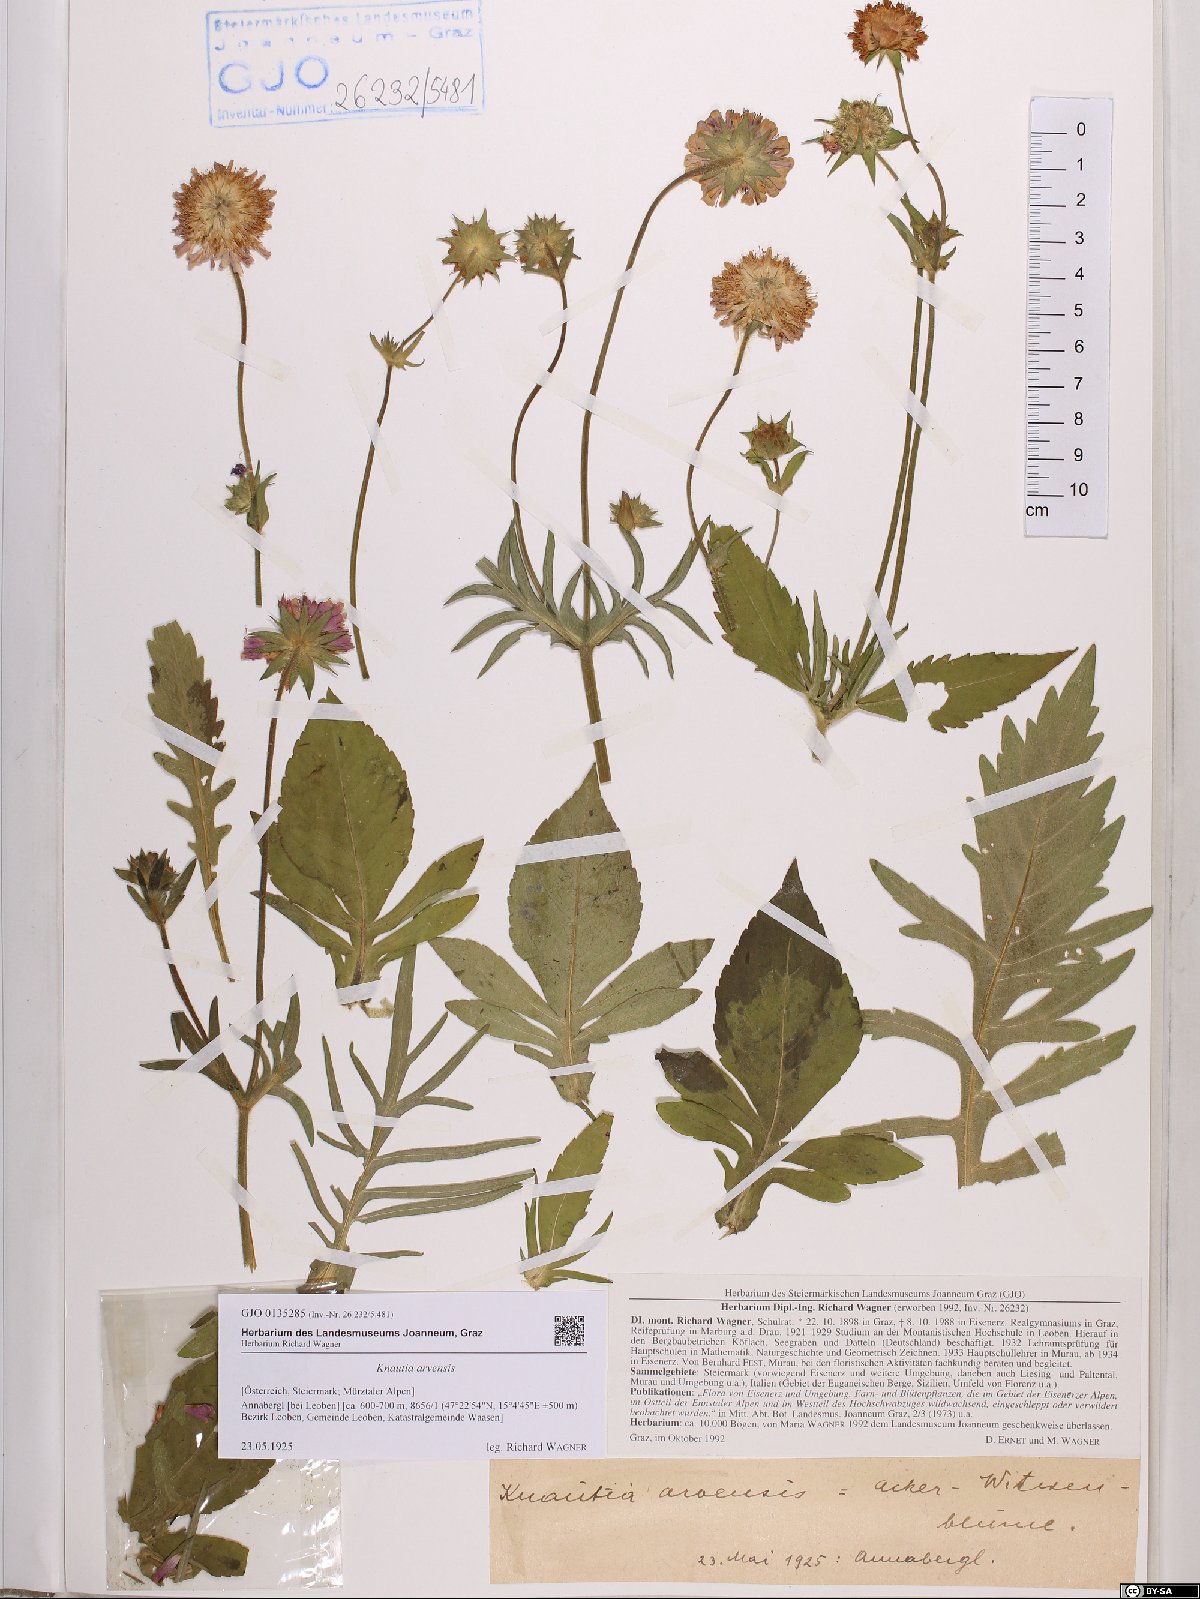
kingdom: Plantae
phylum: Tracheophyta
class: Magnoliopsida
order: Dipsacales
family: Caprifoliaceae
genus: Knautia
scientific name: Knautia arvensis
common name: Field scabiosa
